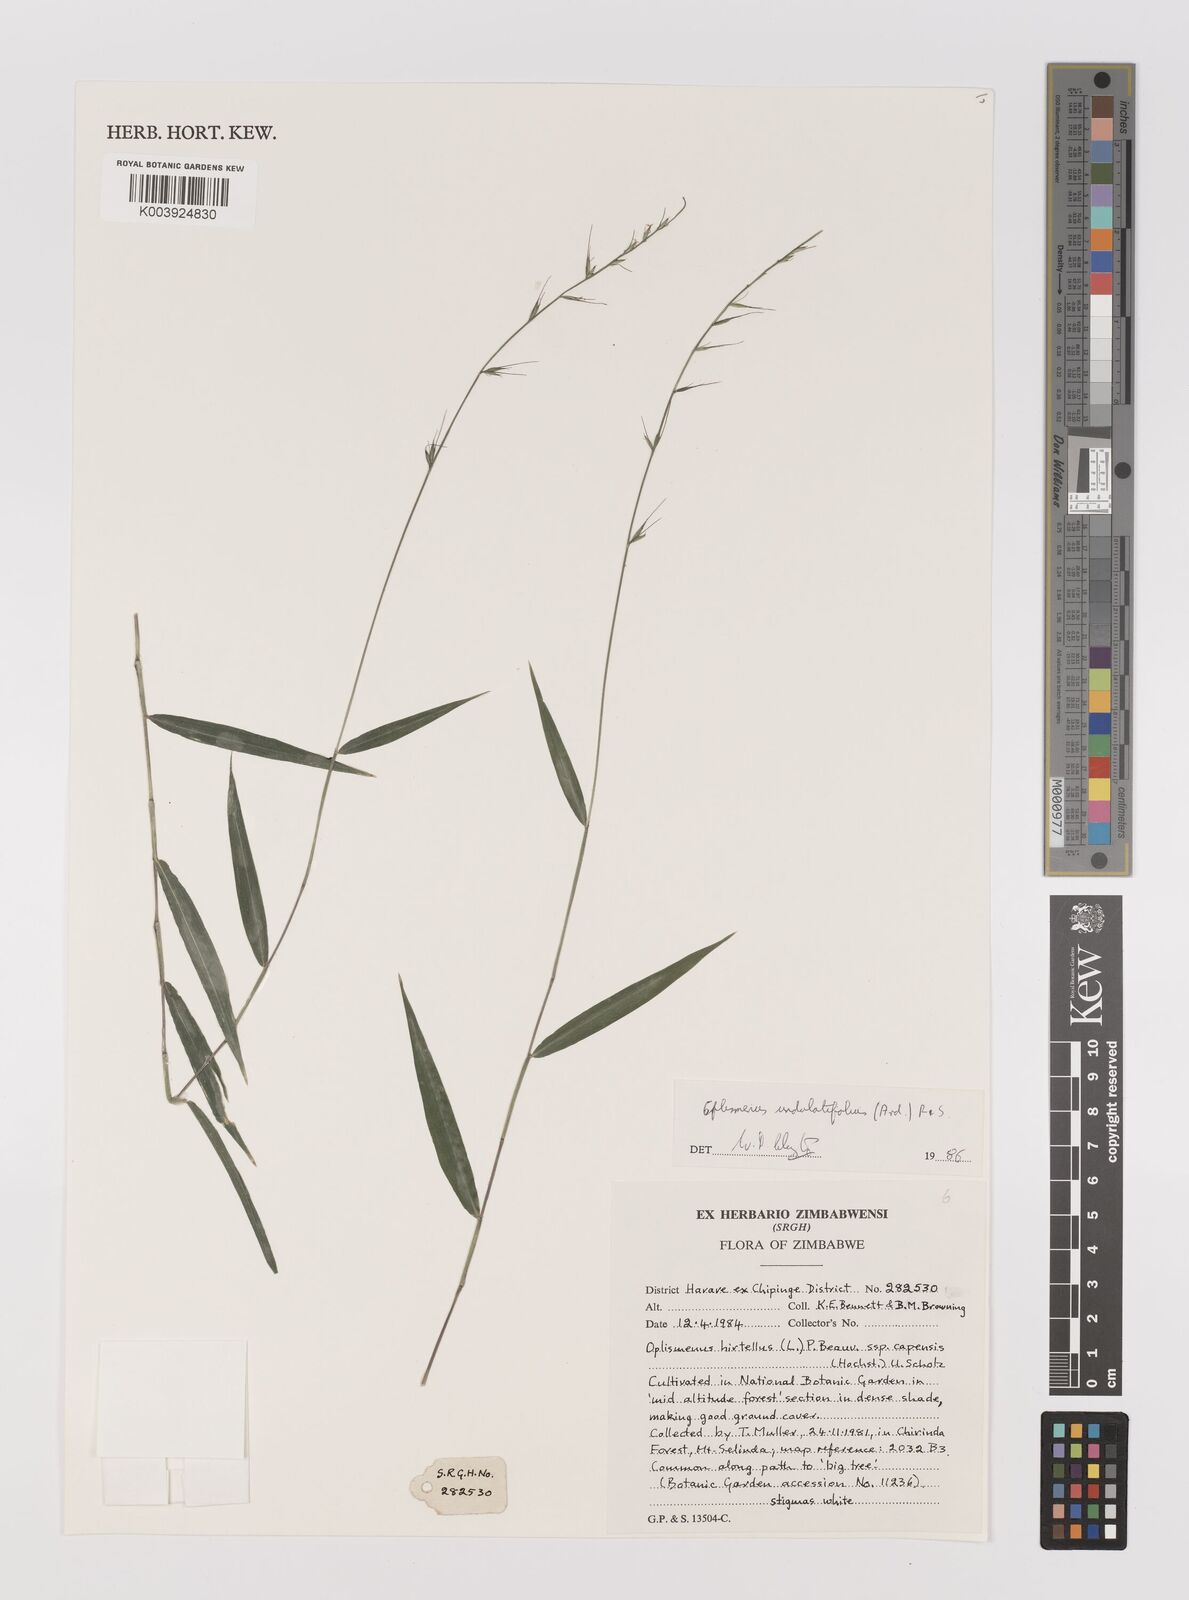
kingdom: Plantae
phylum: Tracheophyta
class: Liliopsida
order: Poales
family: Poaceae
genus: Oplismenus
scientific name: Oplismenus undulatifolius
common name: Wavyleaf basketgrass
